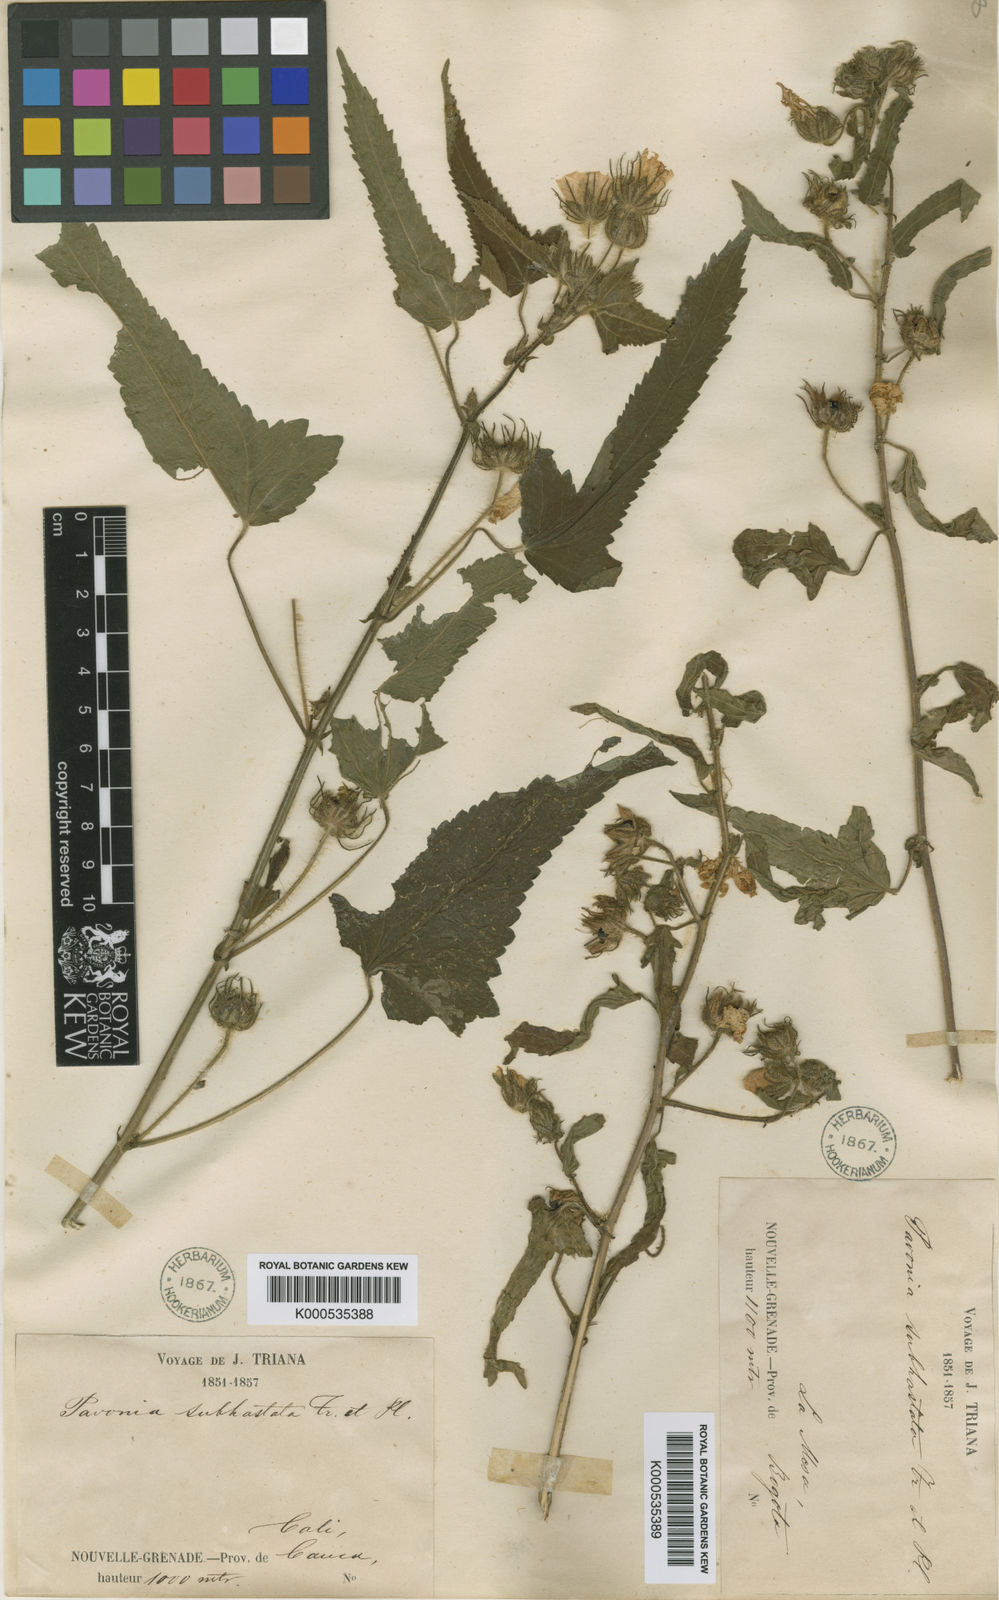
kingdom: Plantae
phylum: Tracheophyta
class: Magnoliopsida
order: Malvales
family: Malvaceae
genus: Pavonia
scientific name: Pavonia subhastata
